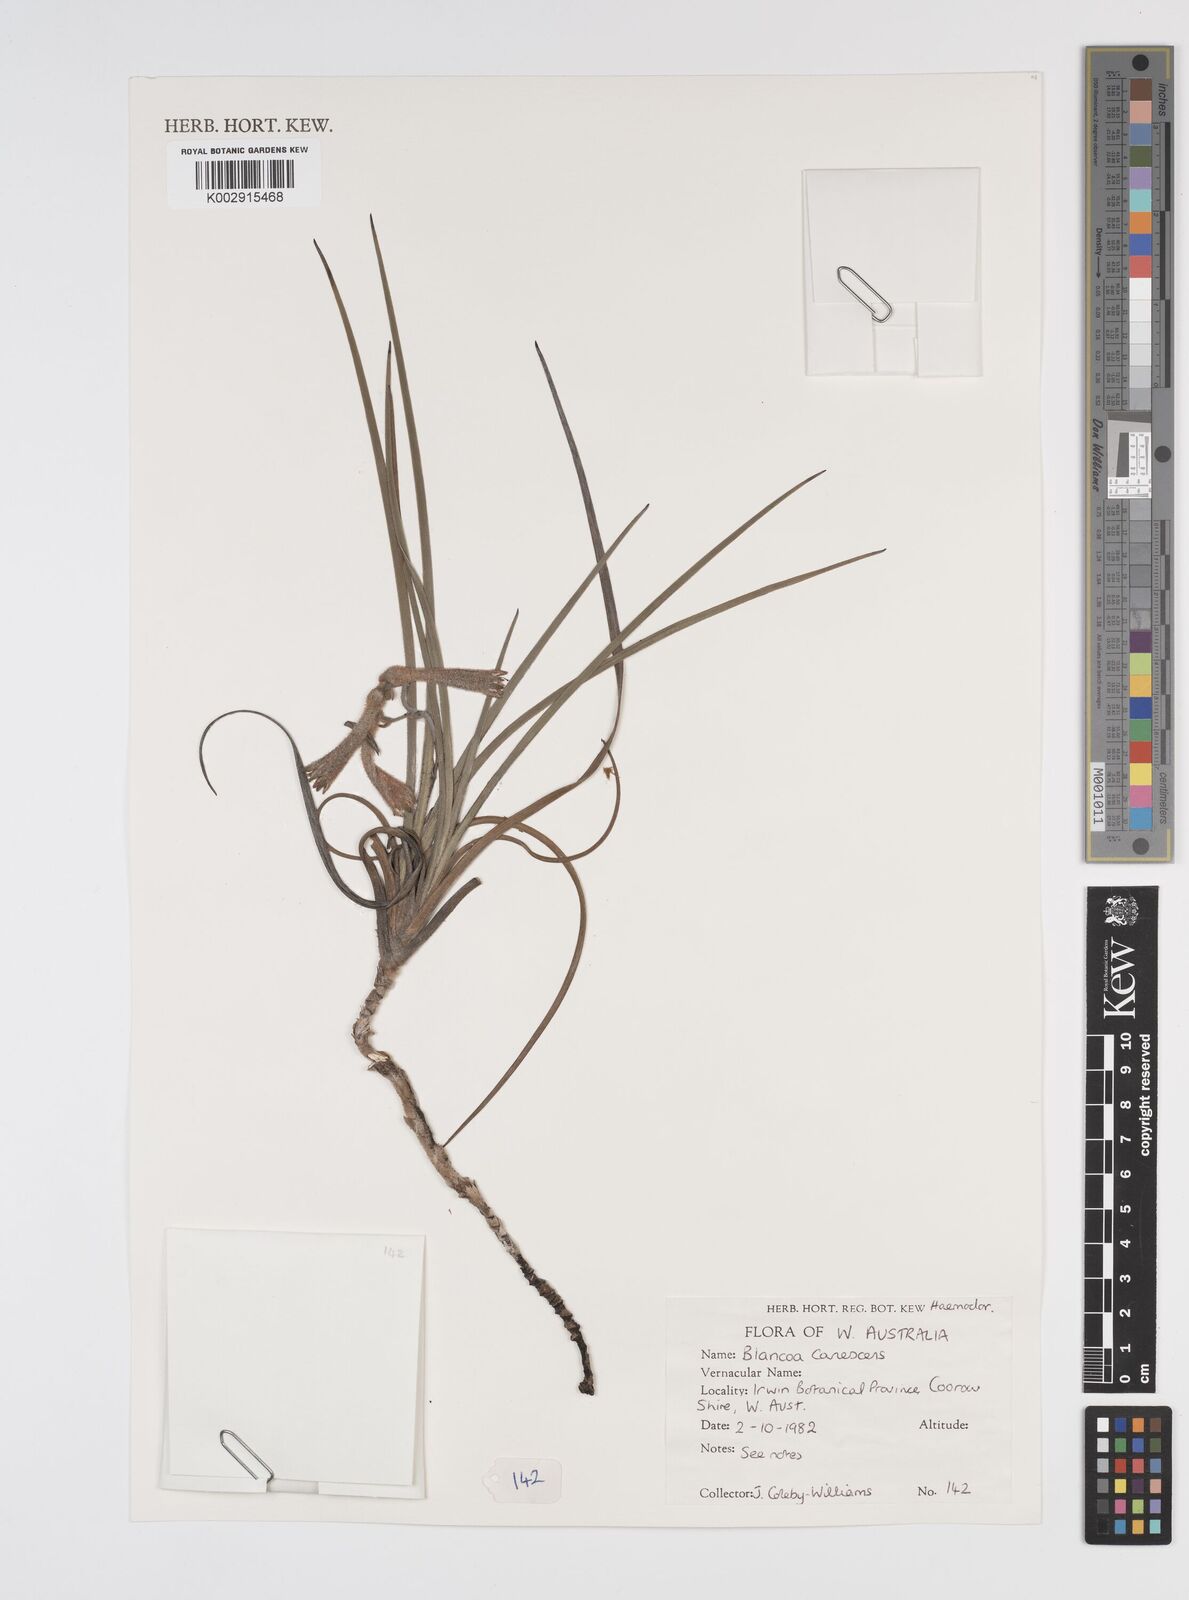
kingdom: Plantae
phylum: Tracheophyta
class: Liliopsida
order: Commelinales
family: Haemodoraceae
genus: Blancoa
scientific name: Blancoa canescens
